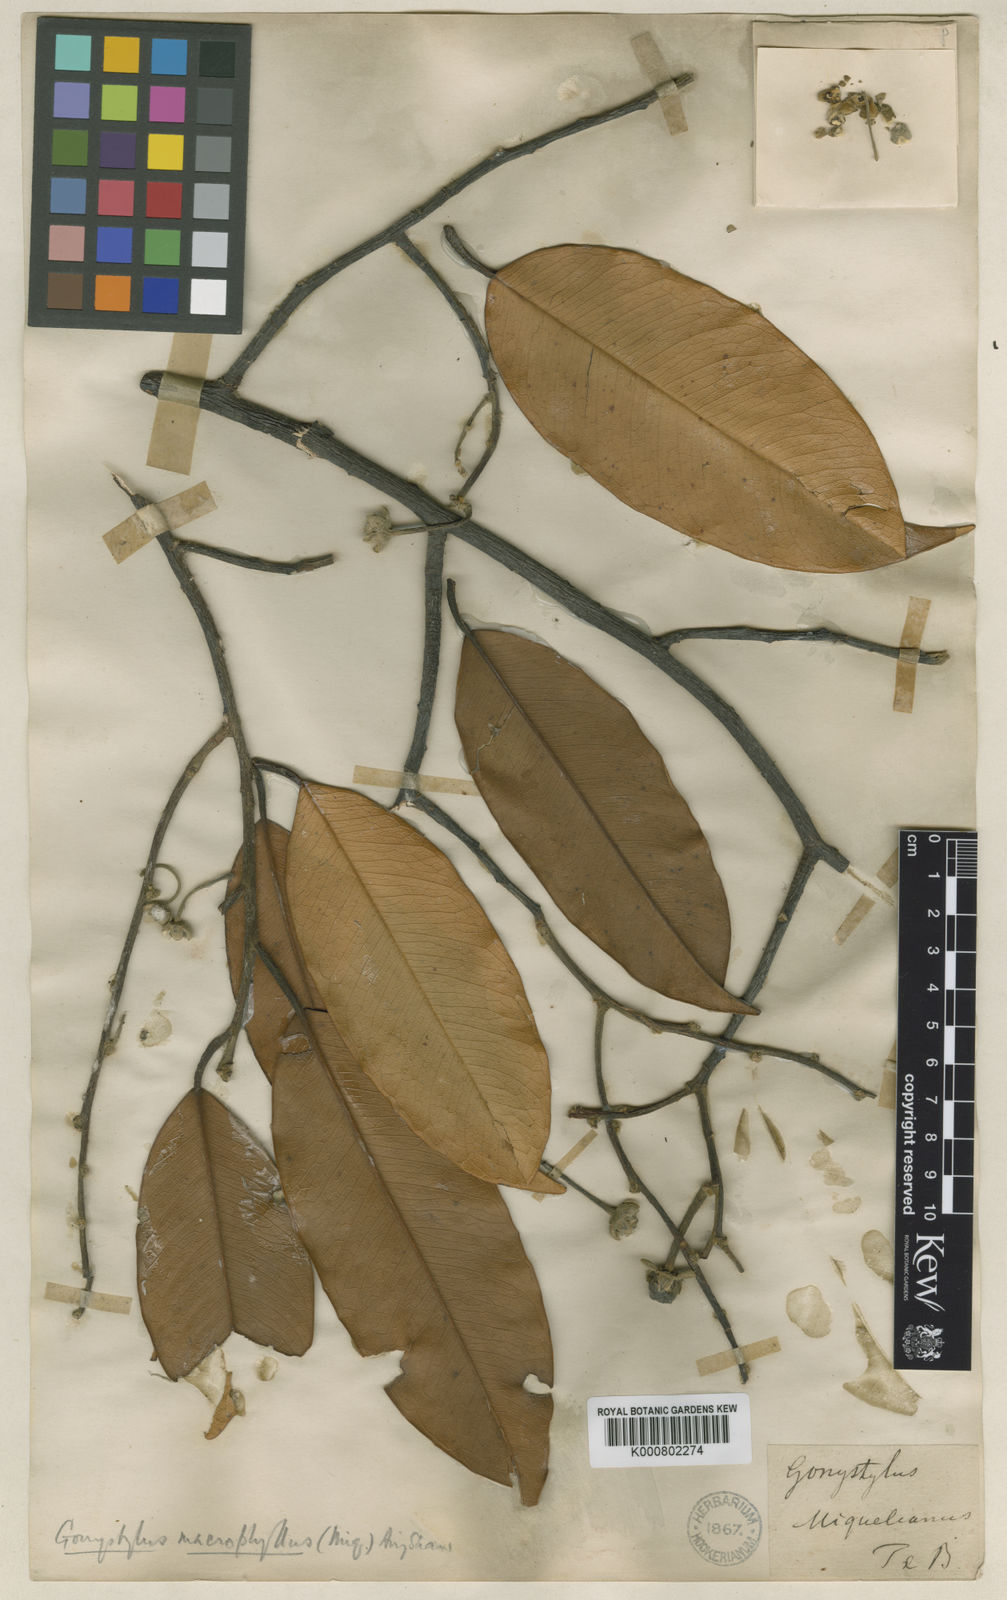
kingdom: Plantae
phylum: Tracheophyta
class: Magnoliopsida
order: Malvales
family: Thymelaeaceae
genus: Gonystylus
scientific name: Gonystylus macrophyllus
